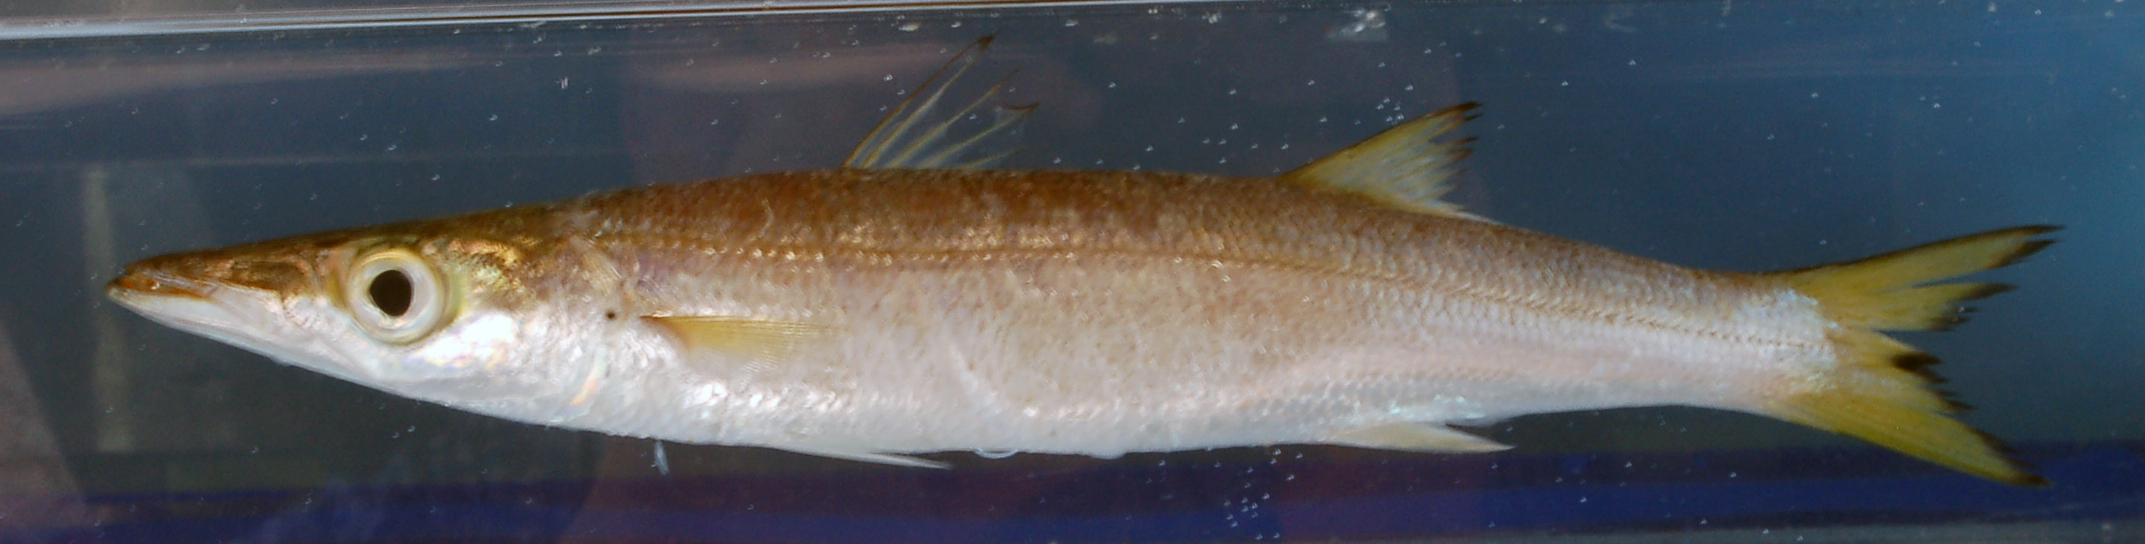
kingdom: Animalia
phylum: Chordata
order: Perciformes
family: Sphyraenidae
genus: Sphyraena
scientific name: Sphyraena pinguis
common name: Red barracuda
